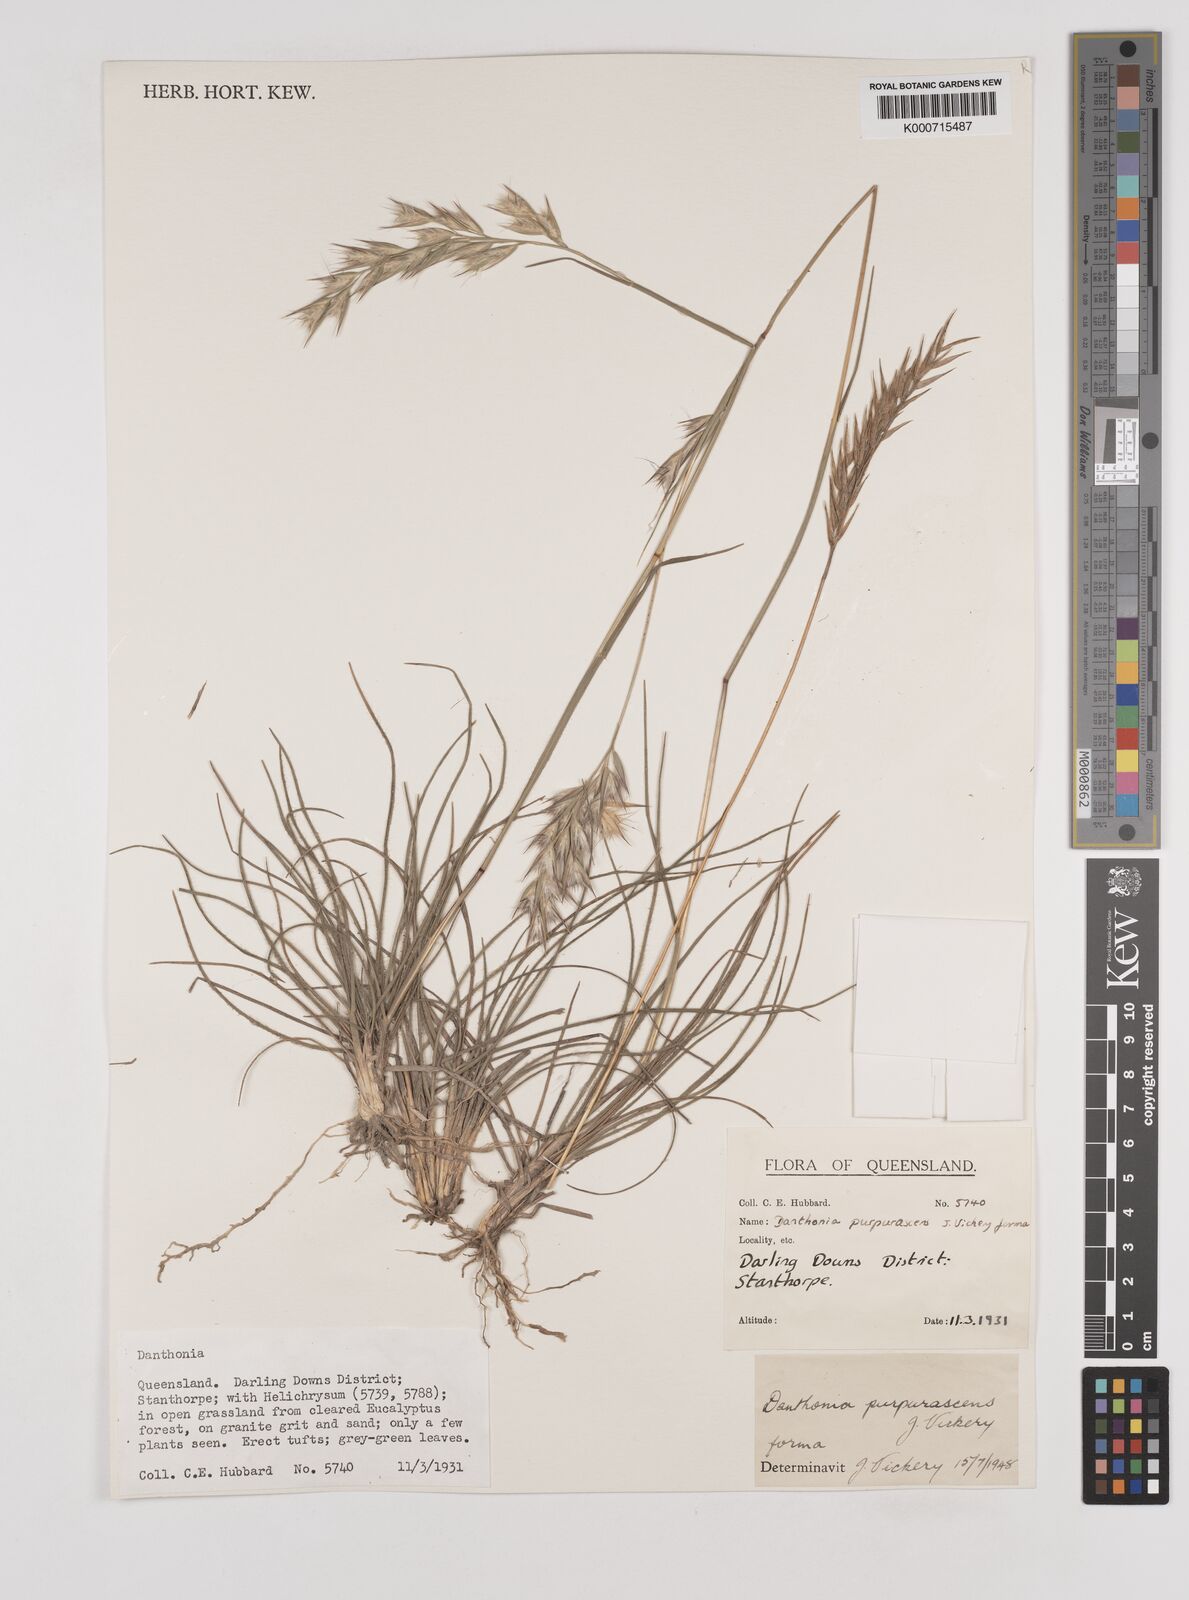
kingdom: Plantae
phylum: Tracheophyta
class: Liliopsida
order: Poales
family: Poaceae
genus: Rytidosperma
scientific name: Rytidosperma tenuius
